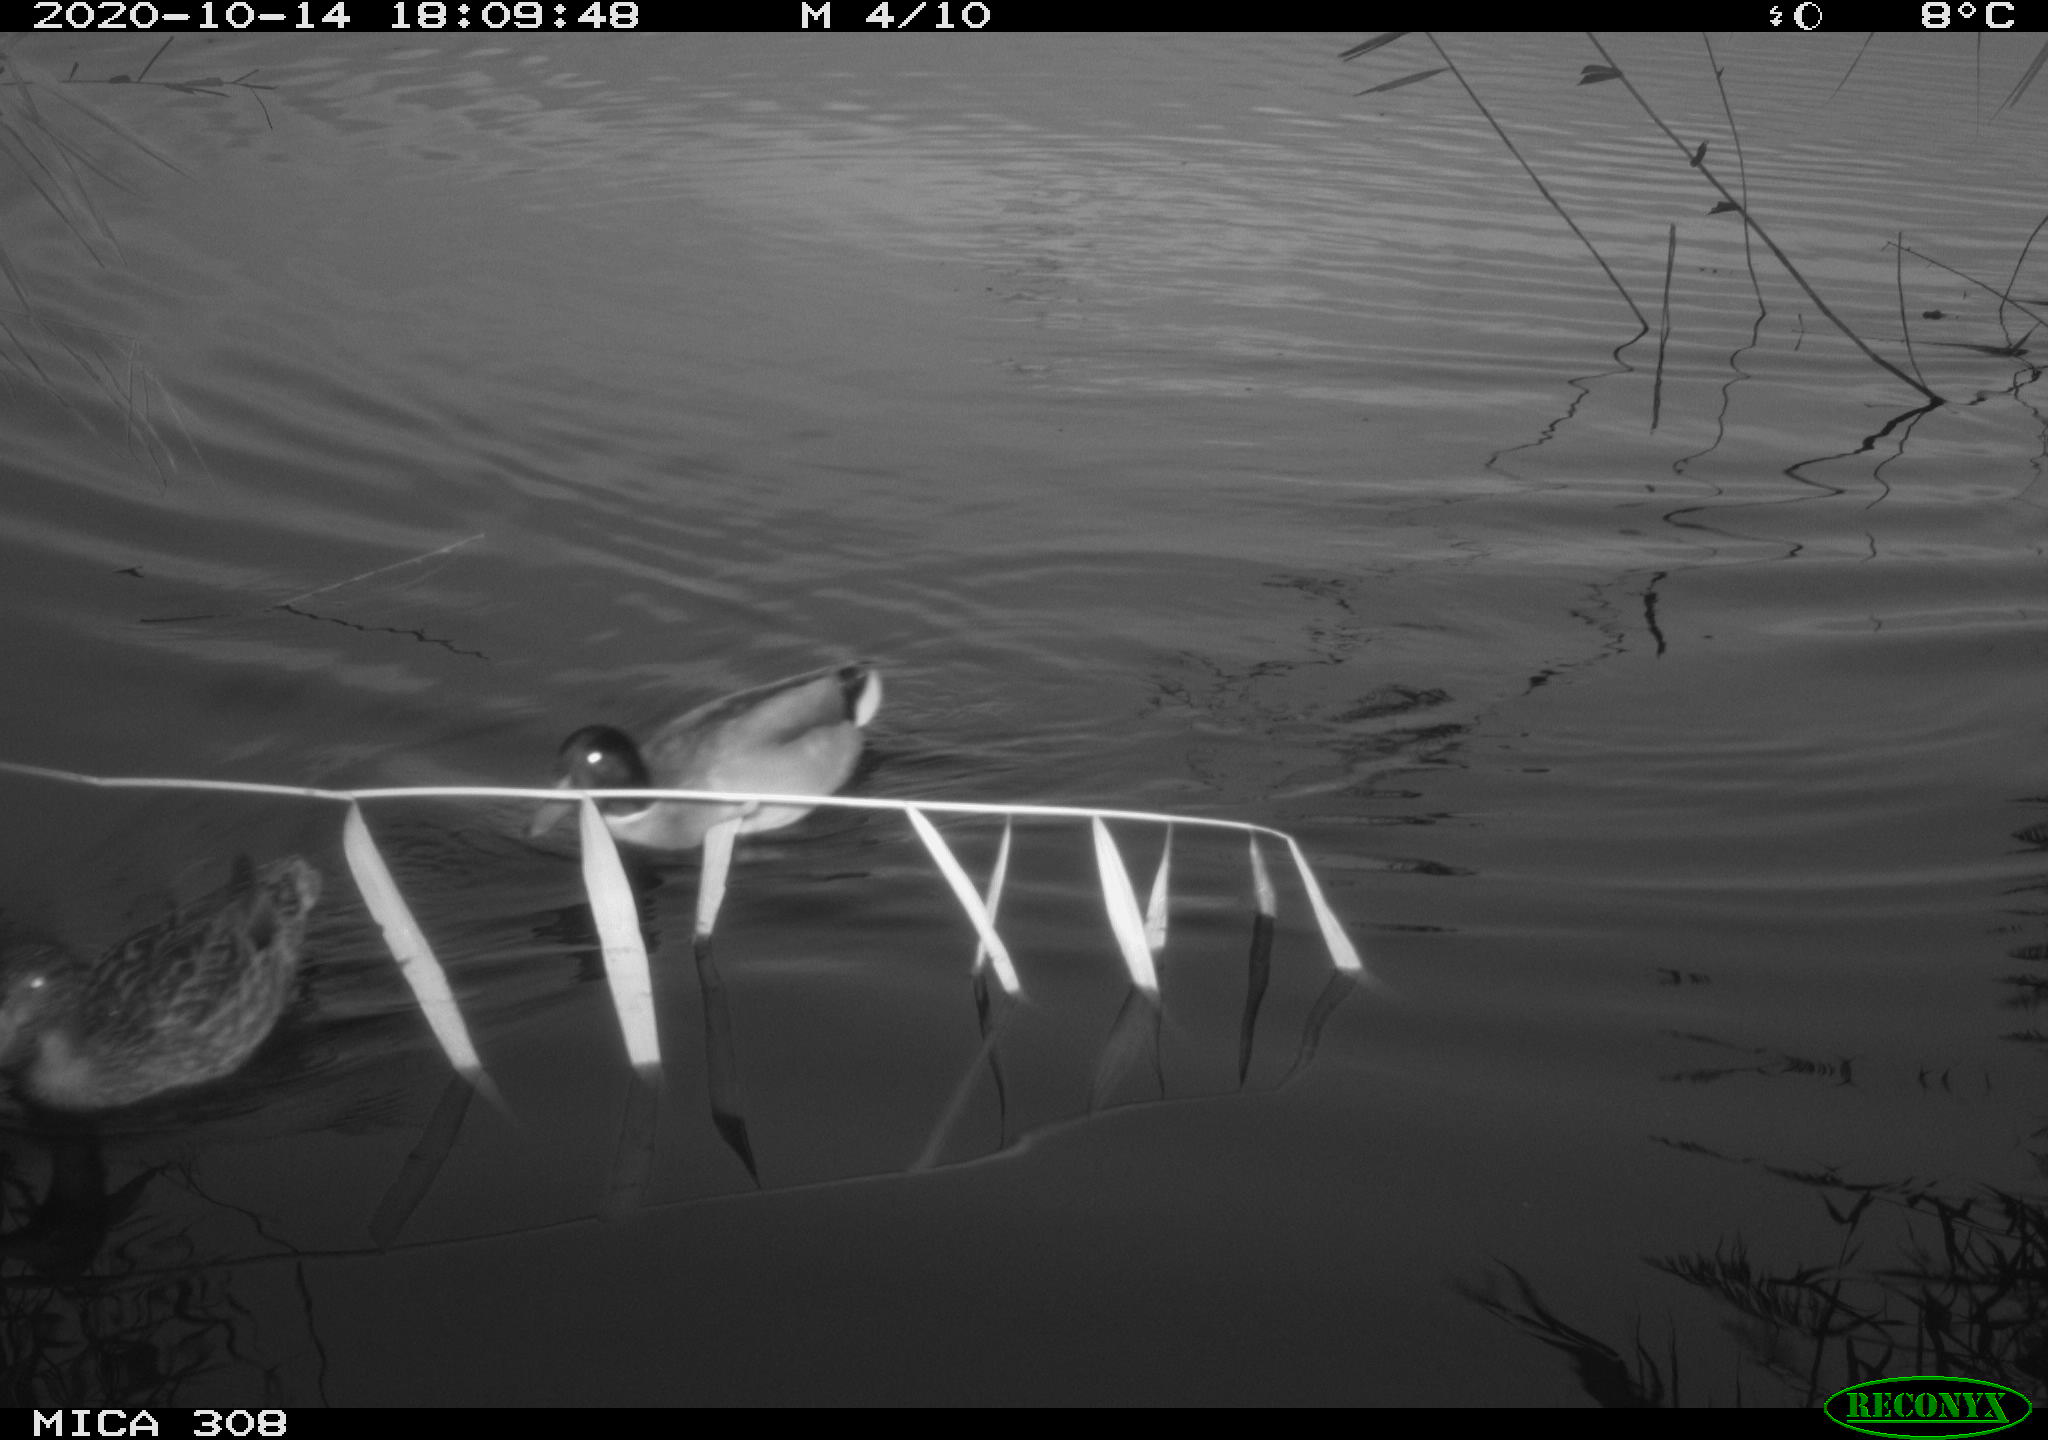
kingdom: Animalia
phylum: Chordata
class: Aves
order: Anseriformes
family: Anatidae
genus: Mareca
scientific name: Mareca strepera
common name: Gadwall
